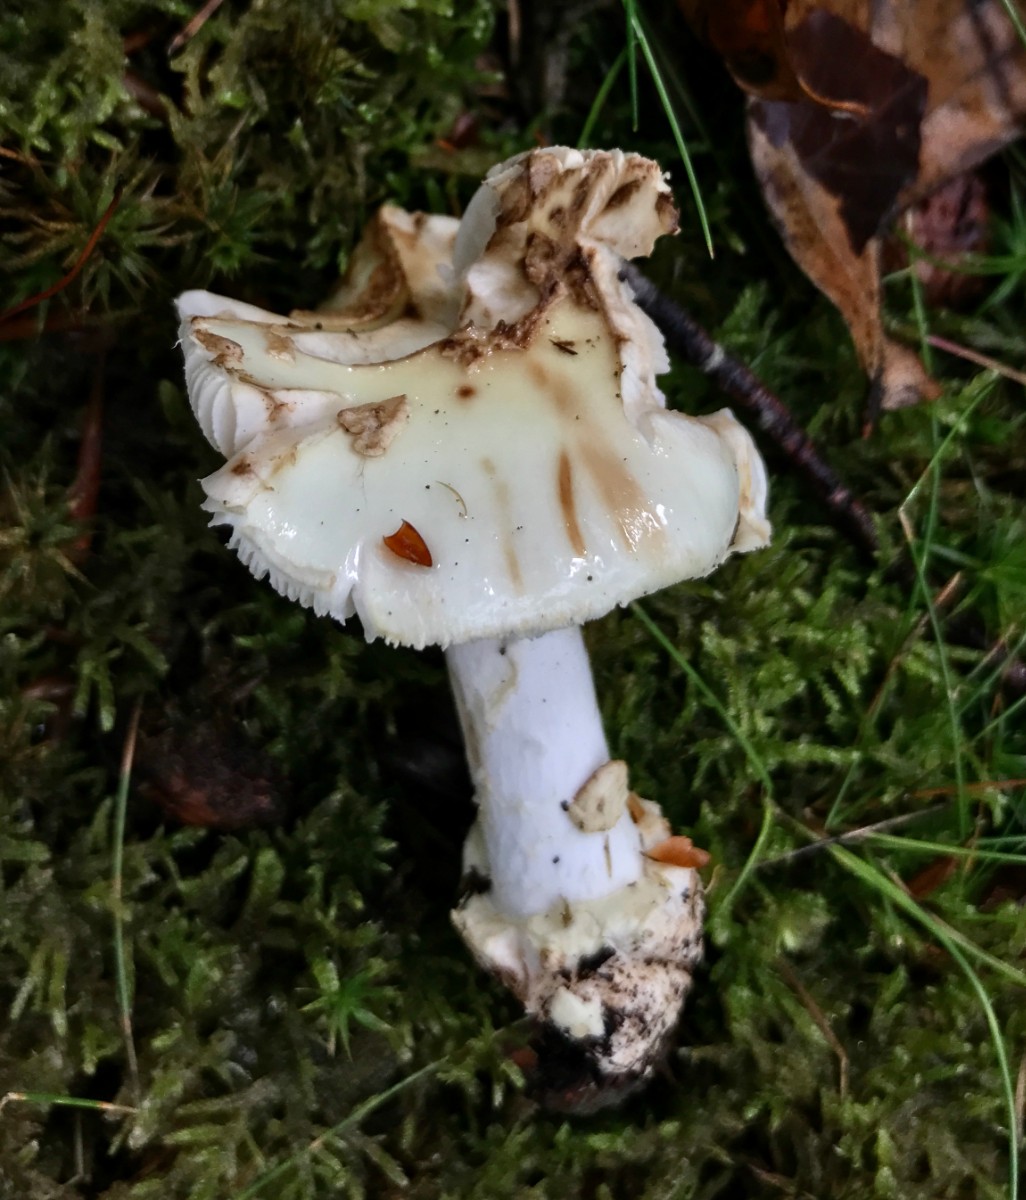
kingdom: Fungi
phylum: Basidiomycota
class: Agaricomycetes
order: Agaricales
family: Amanitaceae
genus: Amanita
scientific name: Amanita citrina
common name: kugleknoldet fluesvamp
